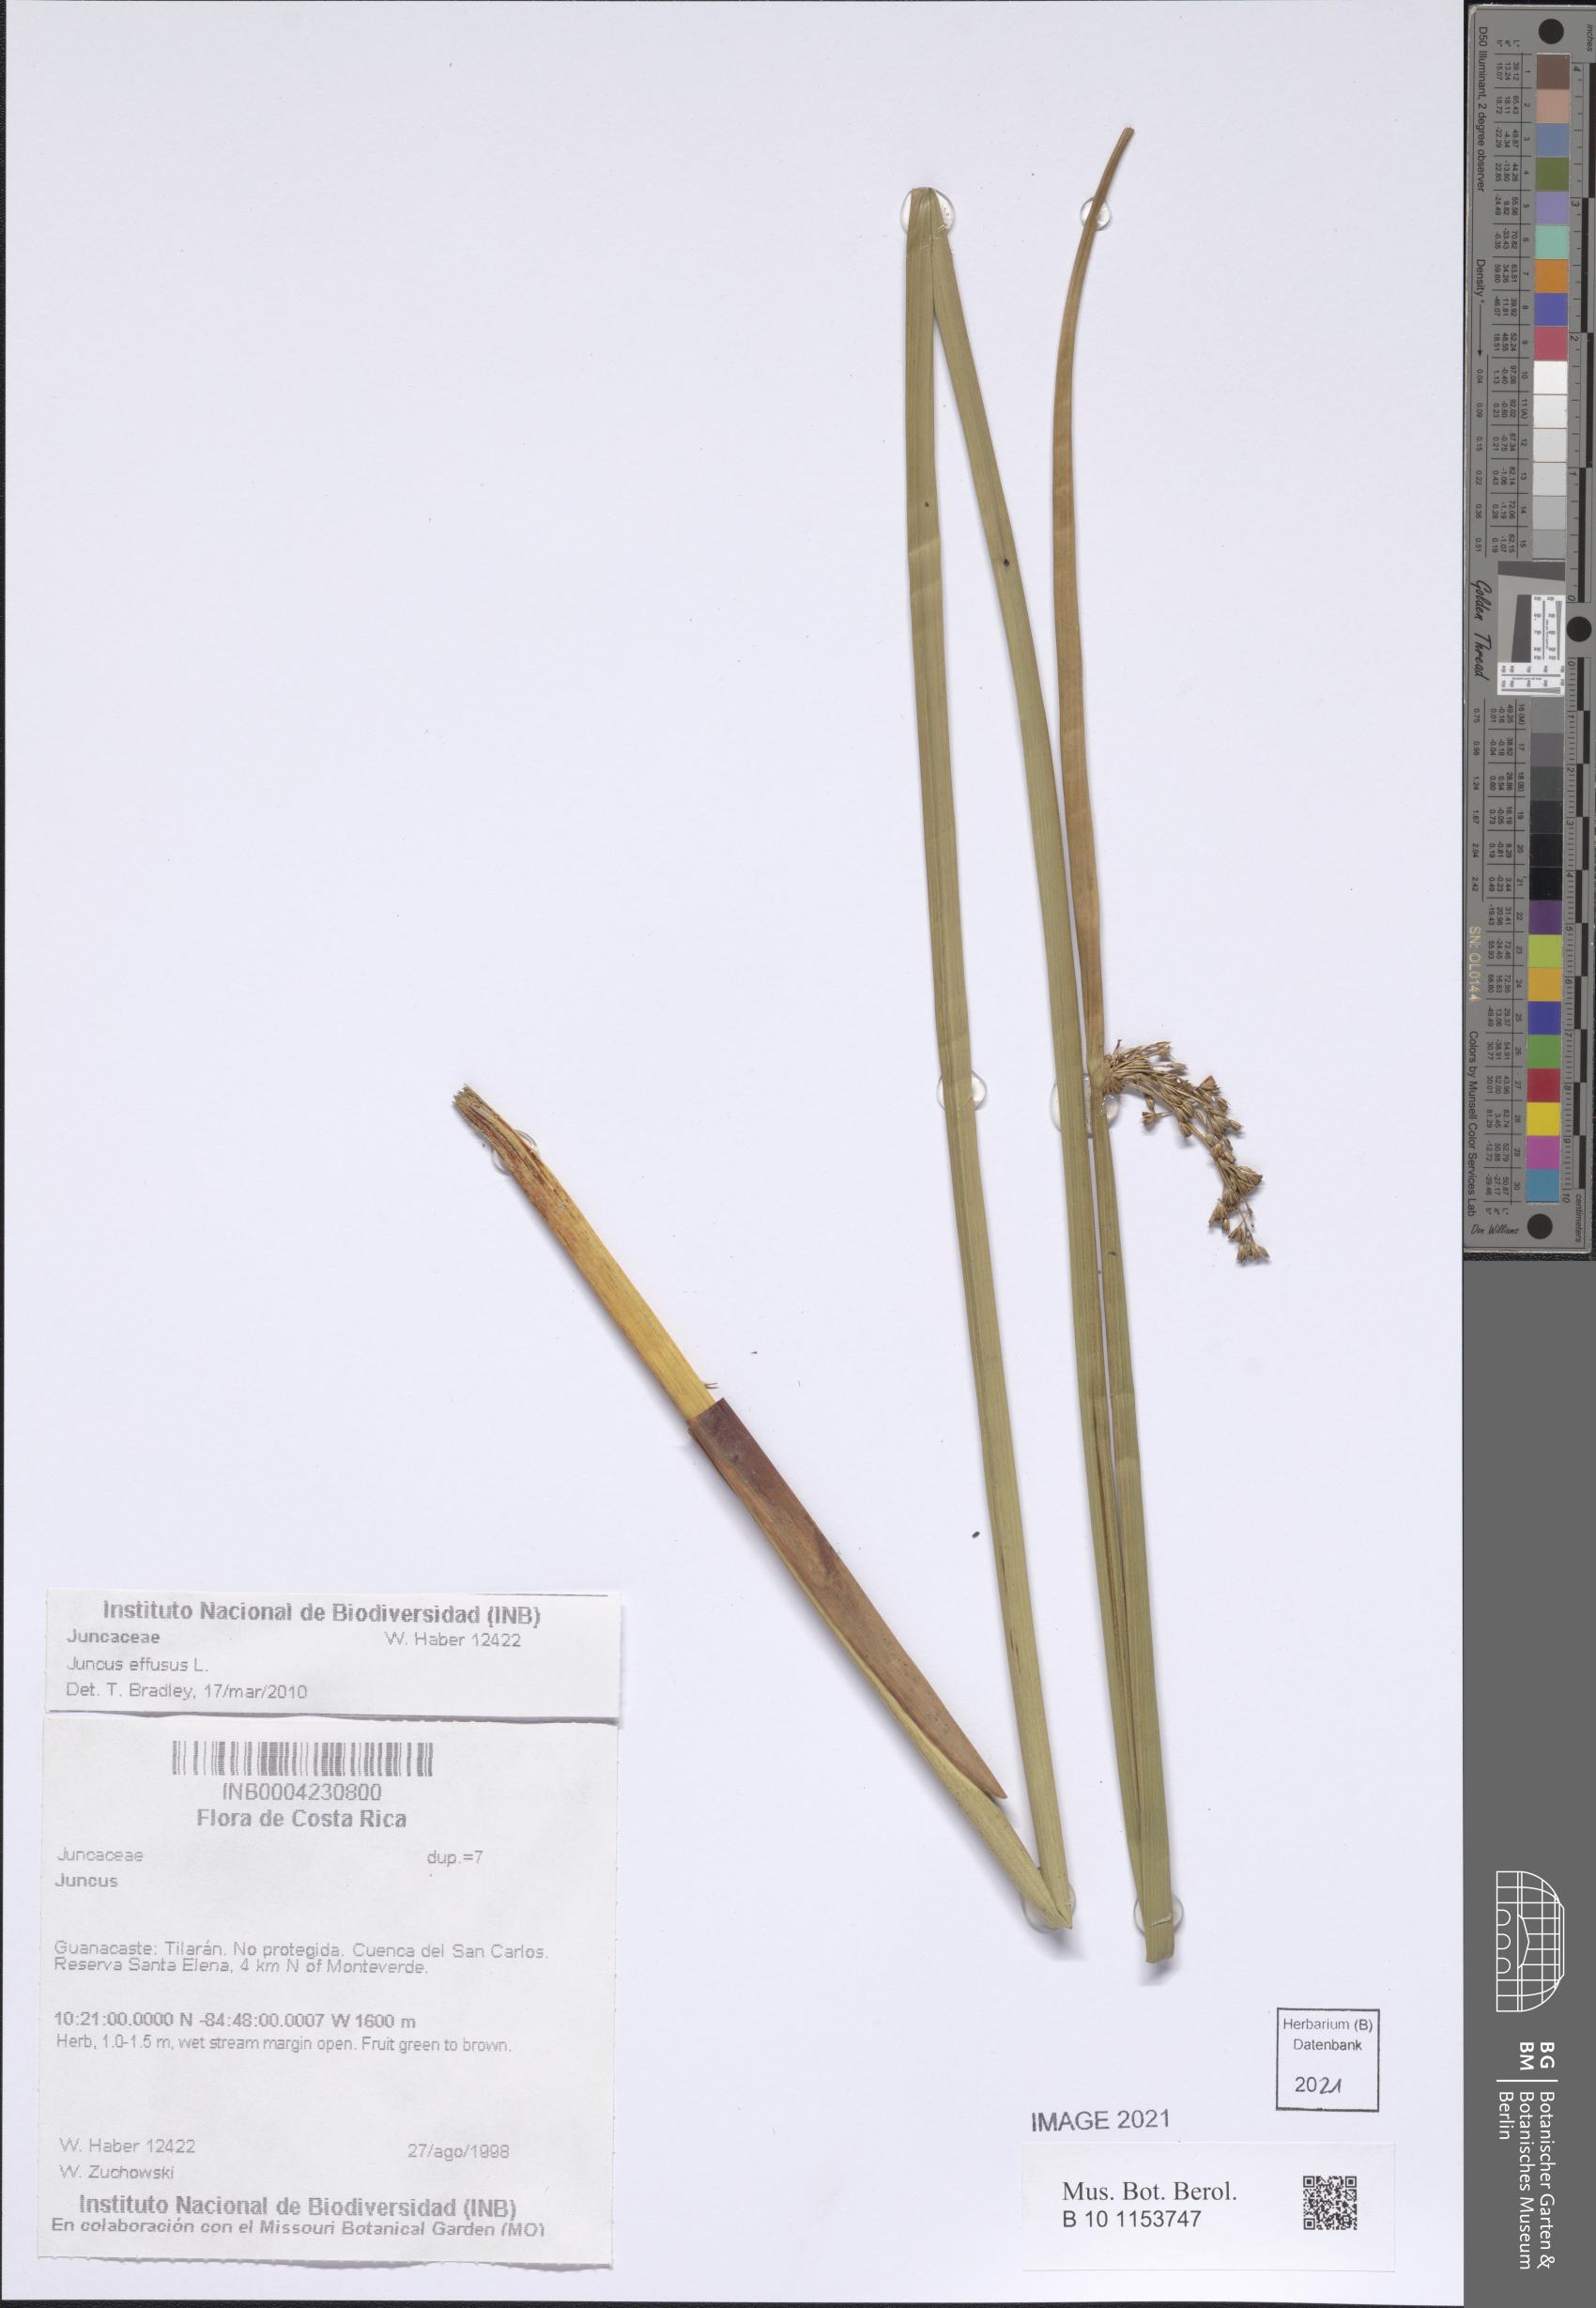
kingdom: Plantae
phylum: Tracheophyta
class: Liliopsida
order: Poales
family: Juncaceae
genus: Juncus
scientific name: Juncus effusus
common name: Soft rush
